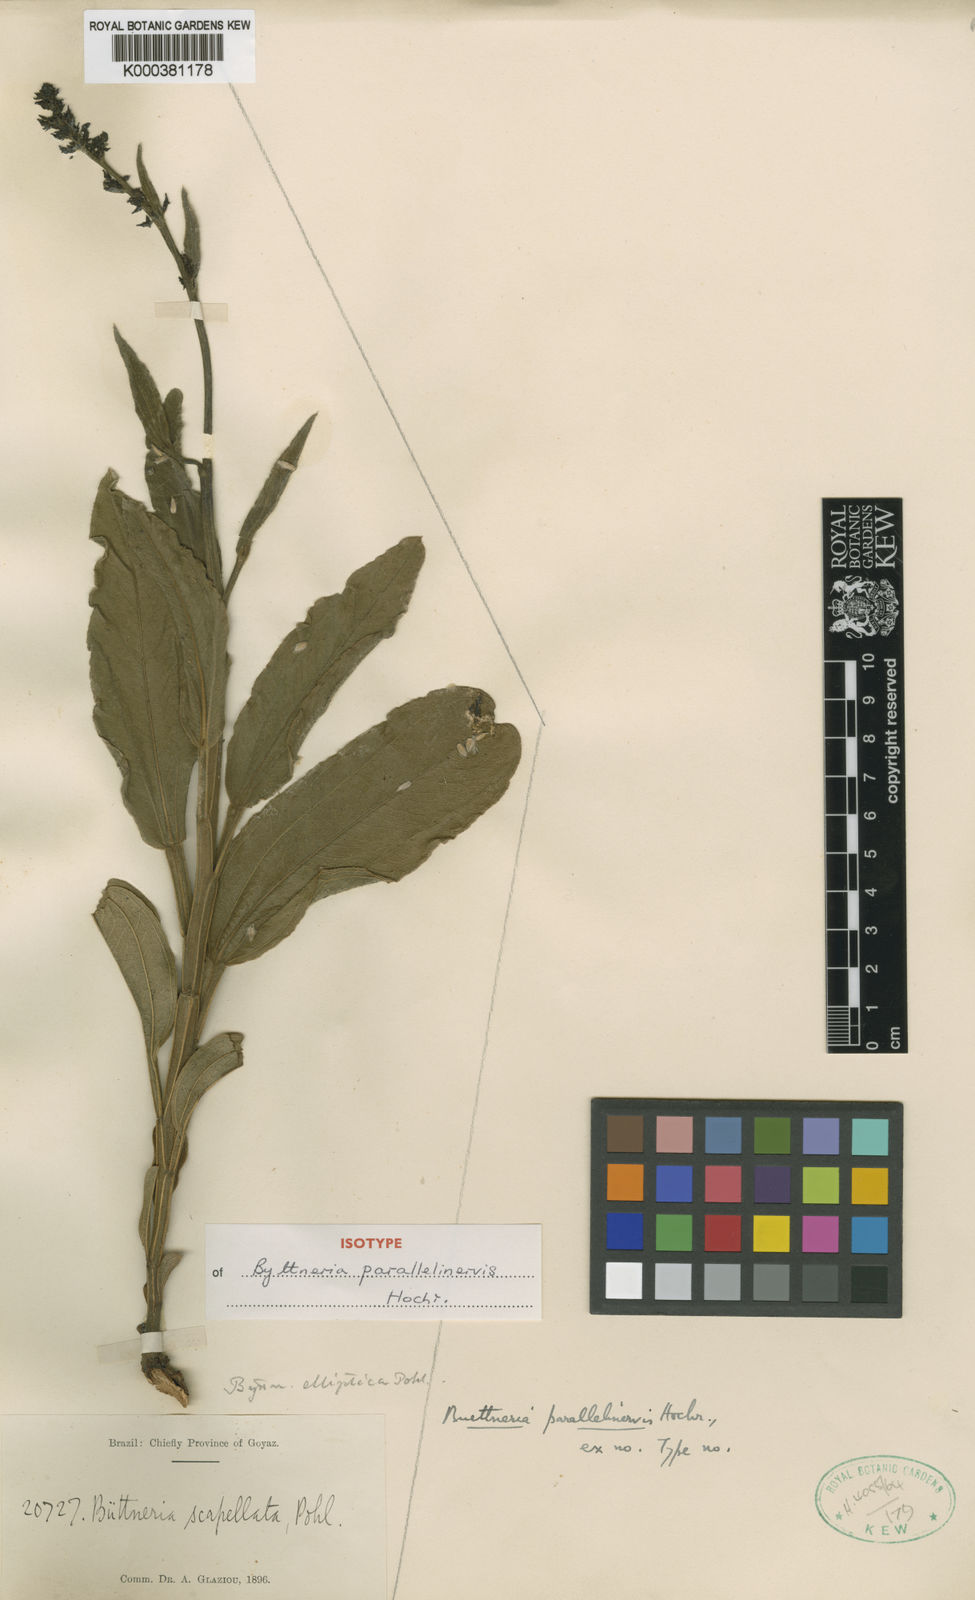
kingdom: Plantae
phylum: Tracheophyta
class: Magnoliopsida
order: Malvales
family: Malvaceae
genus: Byttneria
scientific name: Byttneria elliptica
